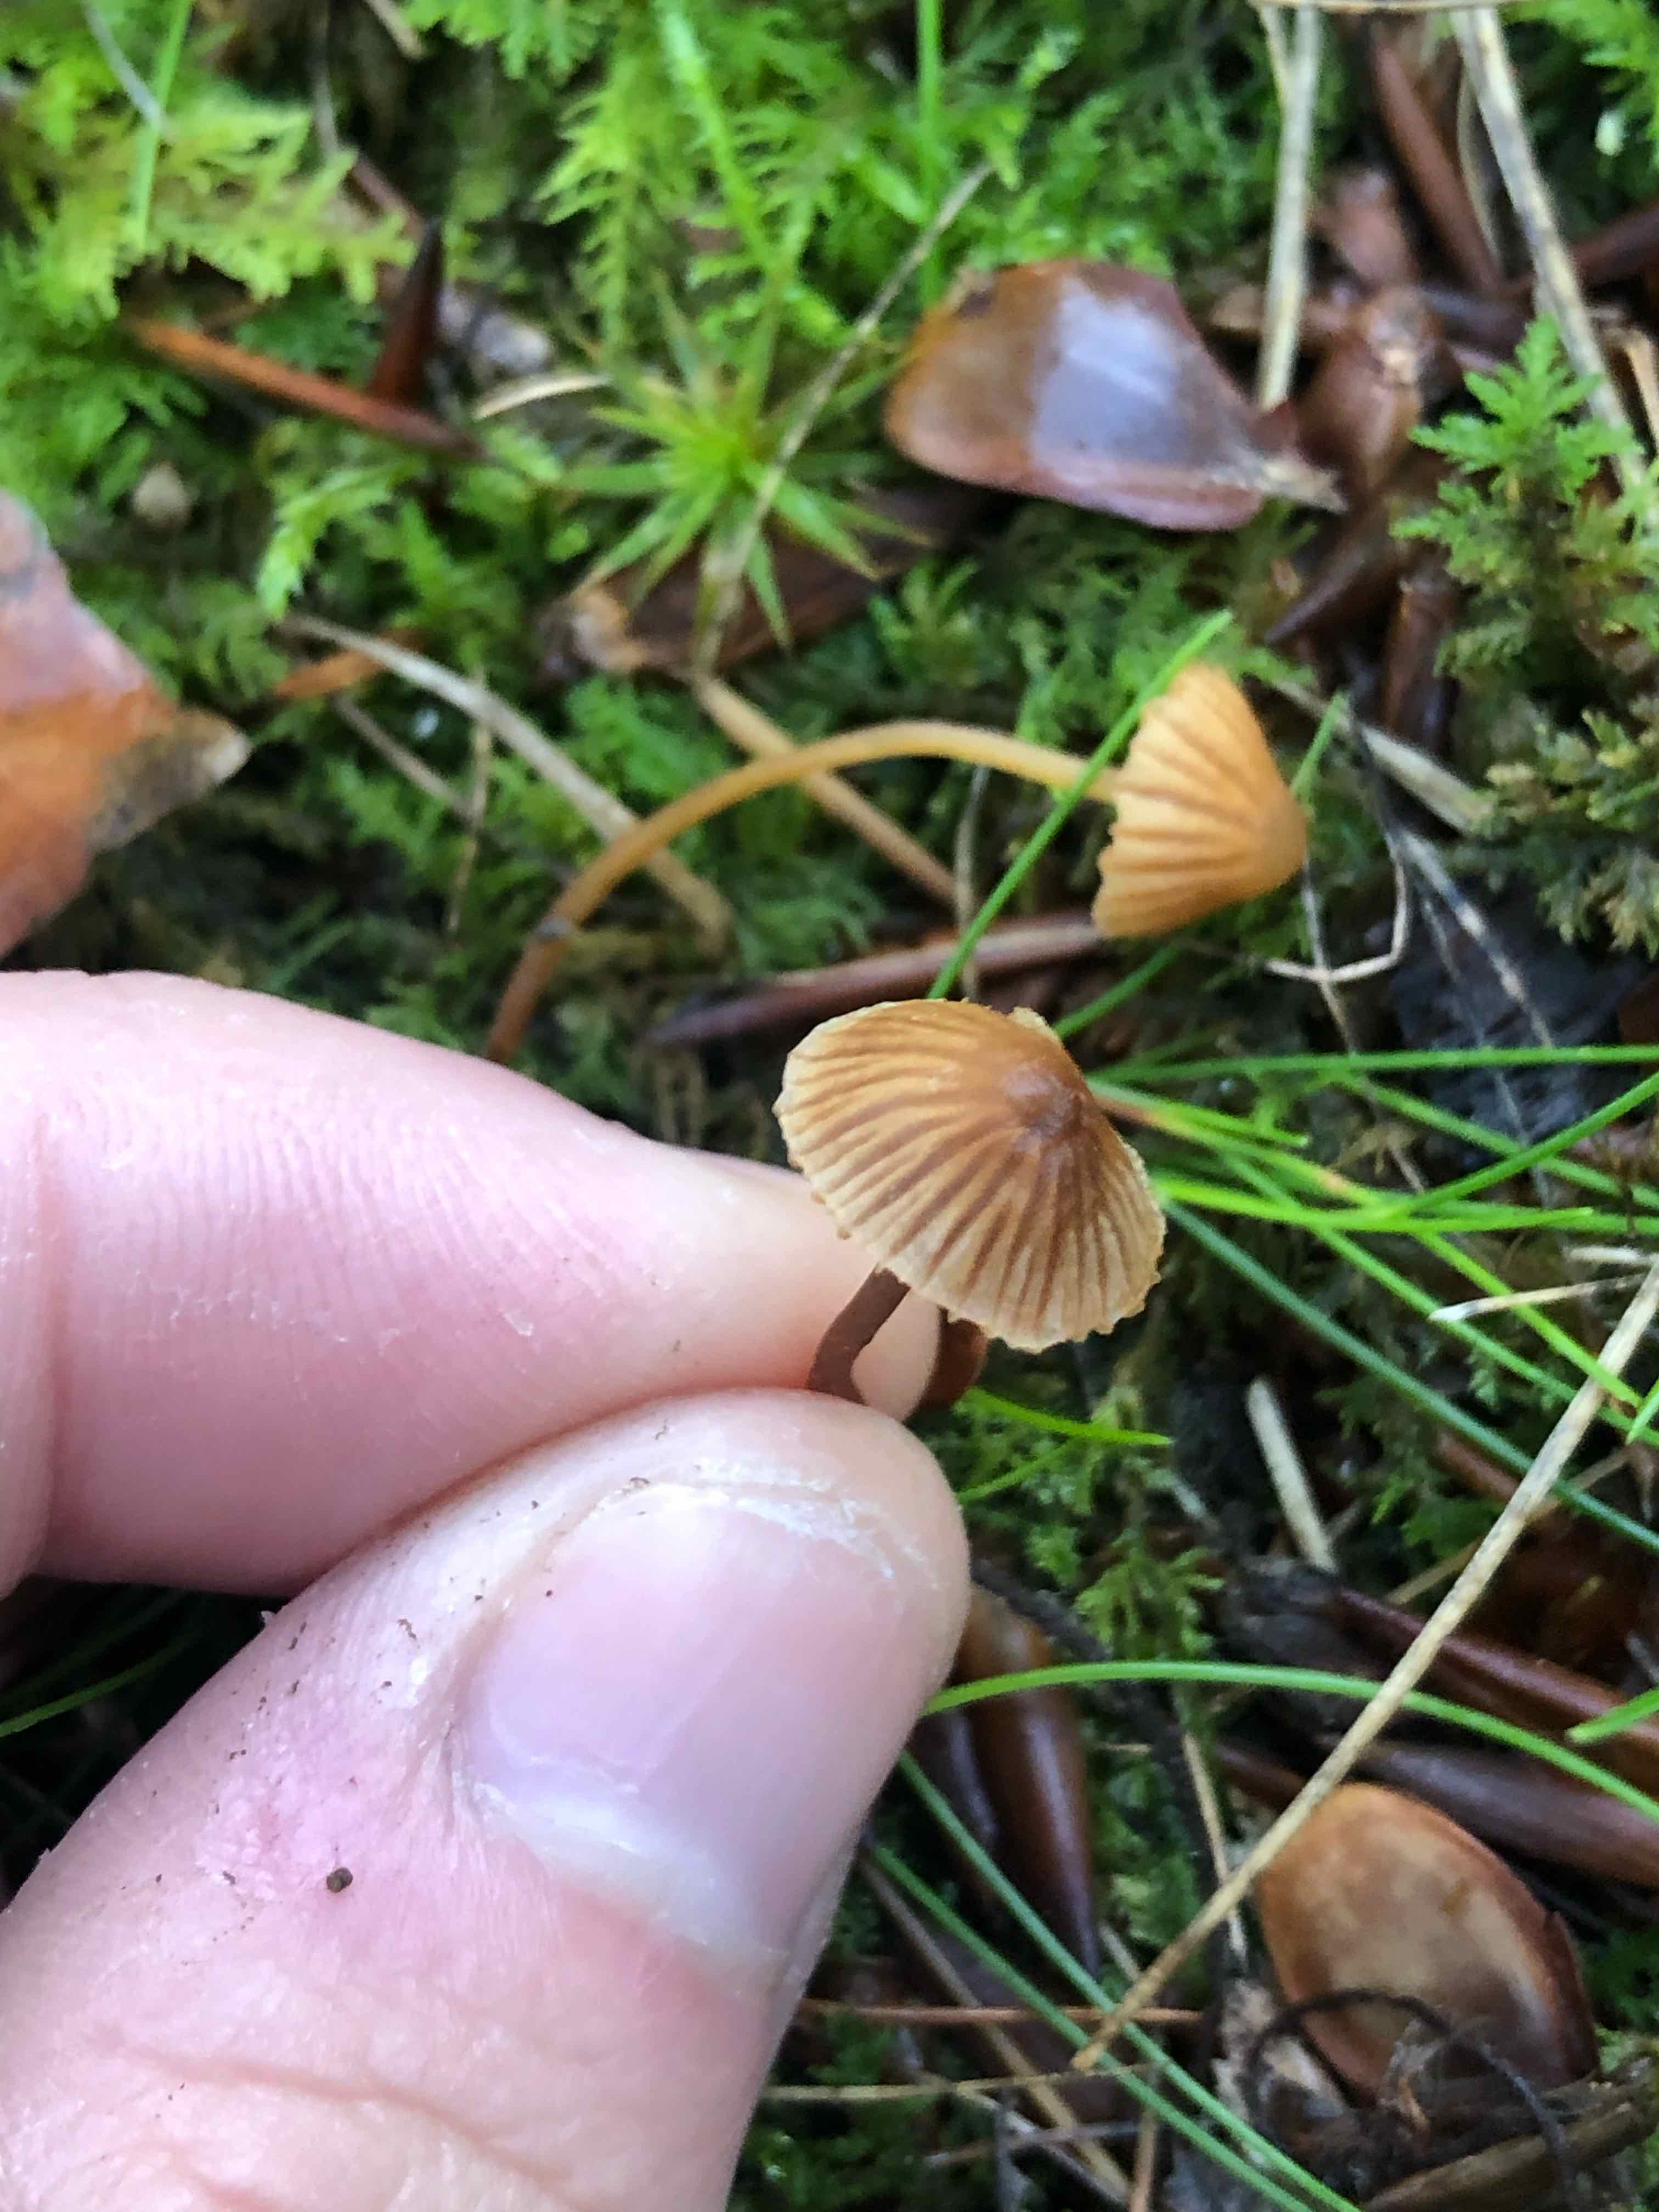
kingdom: Fungi
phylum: Basidiomycota
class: Agaricomycetes
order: Agaricales
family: Hymenogastraceae
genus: Galerina
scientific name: Galerina
